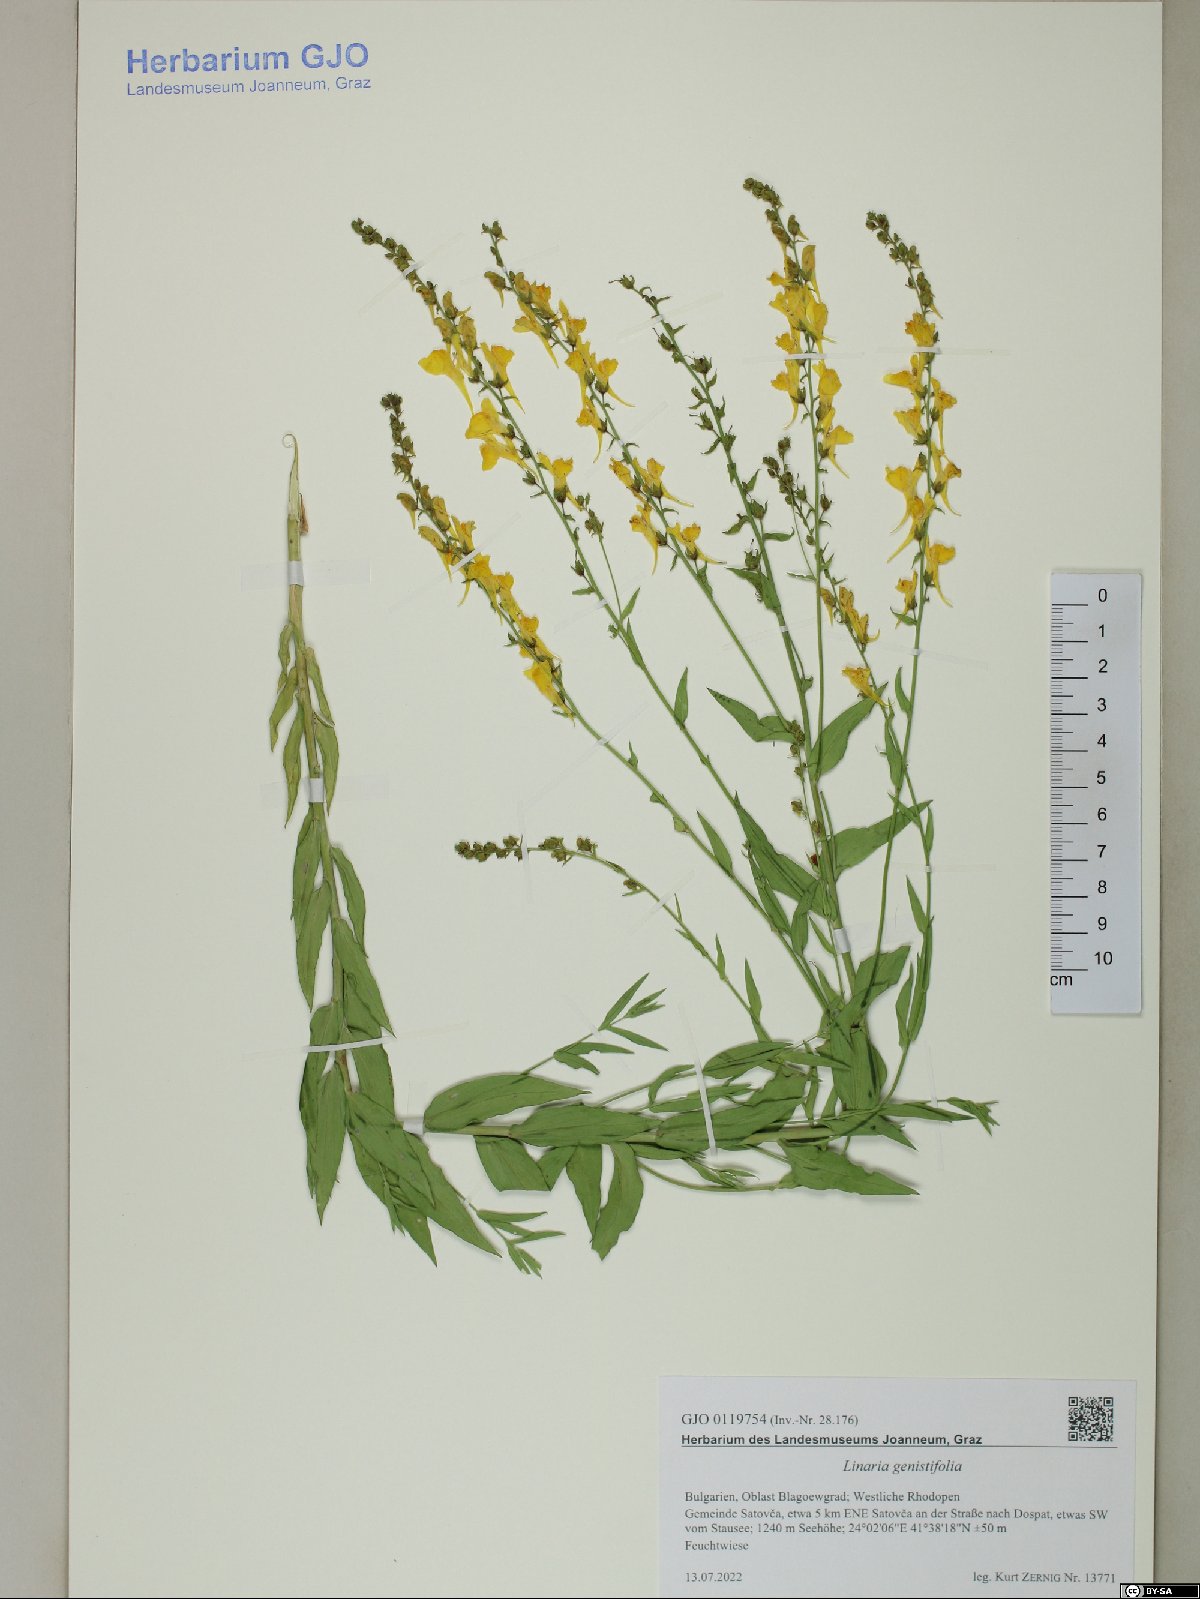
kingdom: Plantae
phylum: Tracheophyta
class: Magnoliopsida
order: Lamiales
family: Plantaginaceae
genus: Linaria
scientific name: Linaria genistifolia
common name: Broomleaf toadflax
